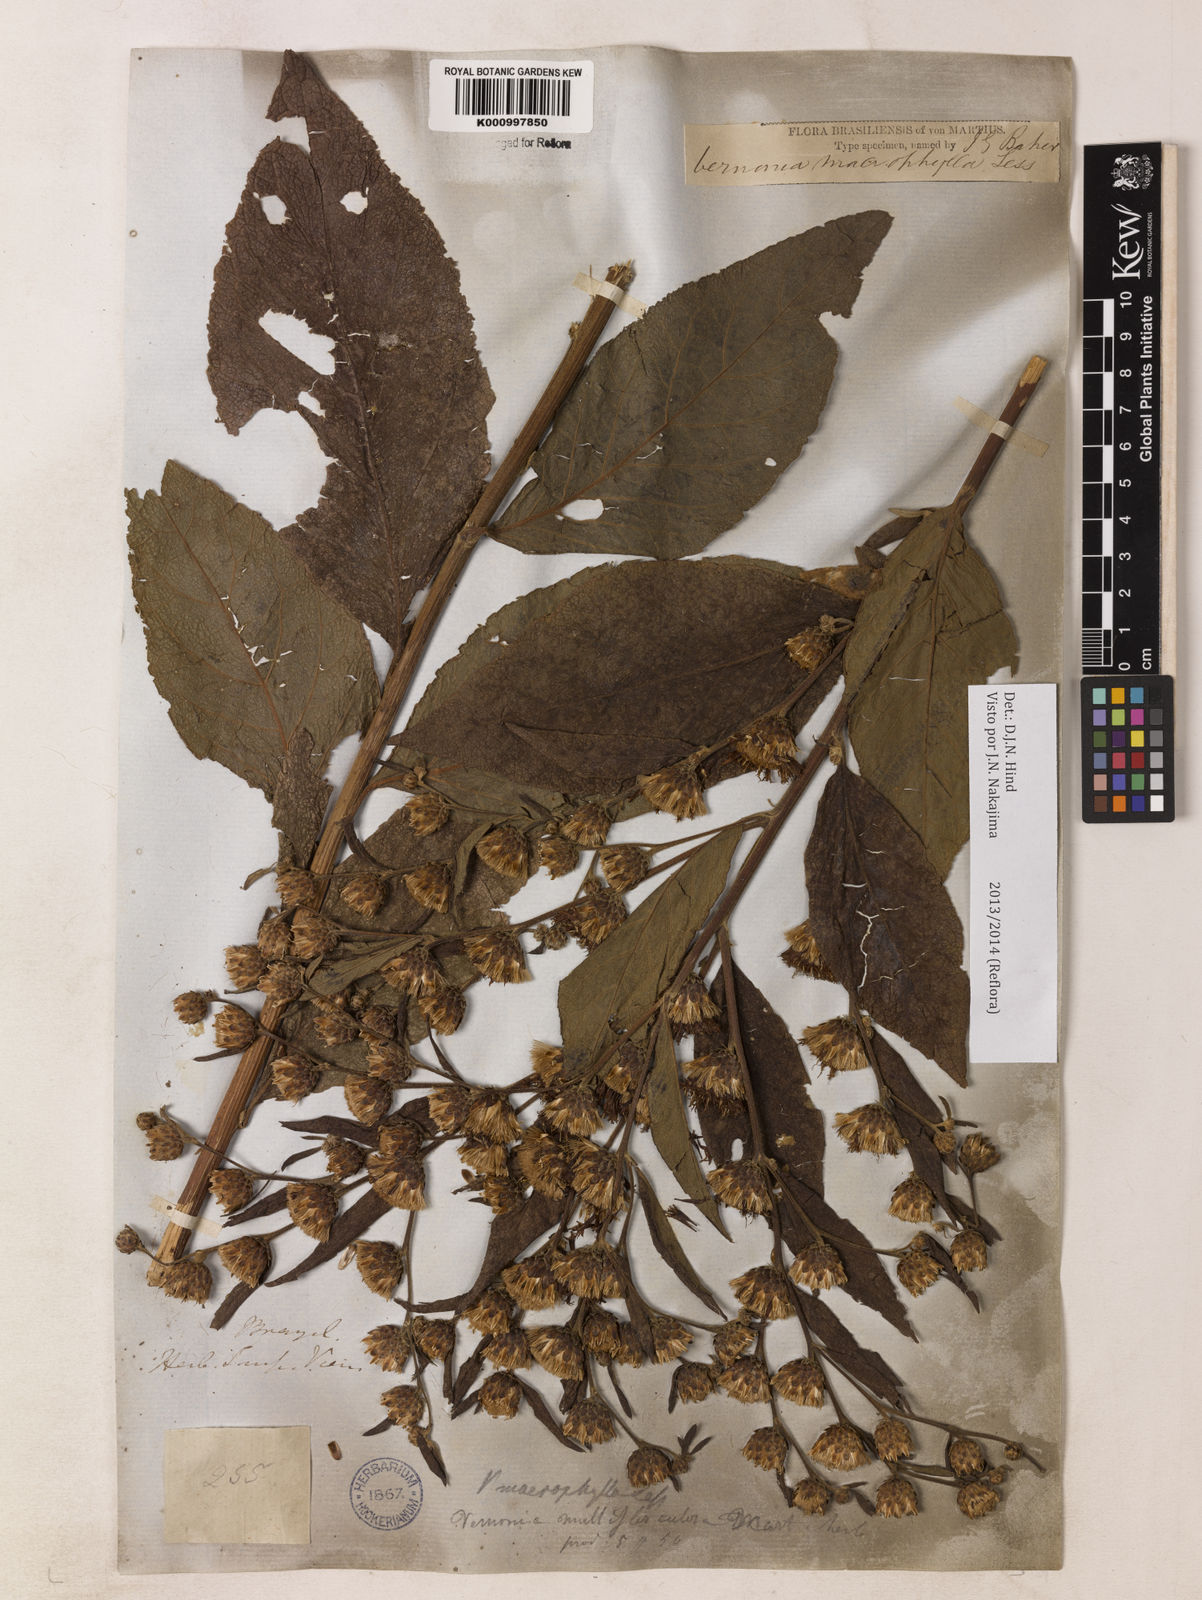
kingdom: Plantae
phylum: Tracheophyta
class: Magnoliopsida
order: Asterales
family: Asteraceae
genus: Lessingianthus
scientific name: Lessingianthus macrophyllus
